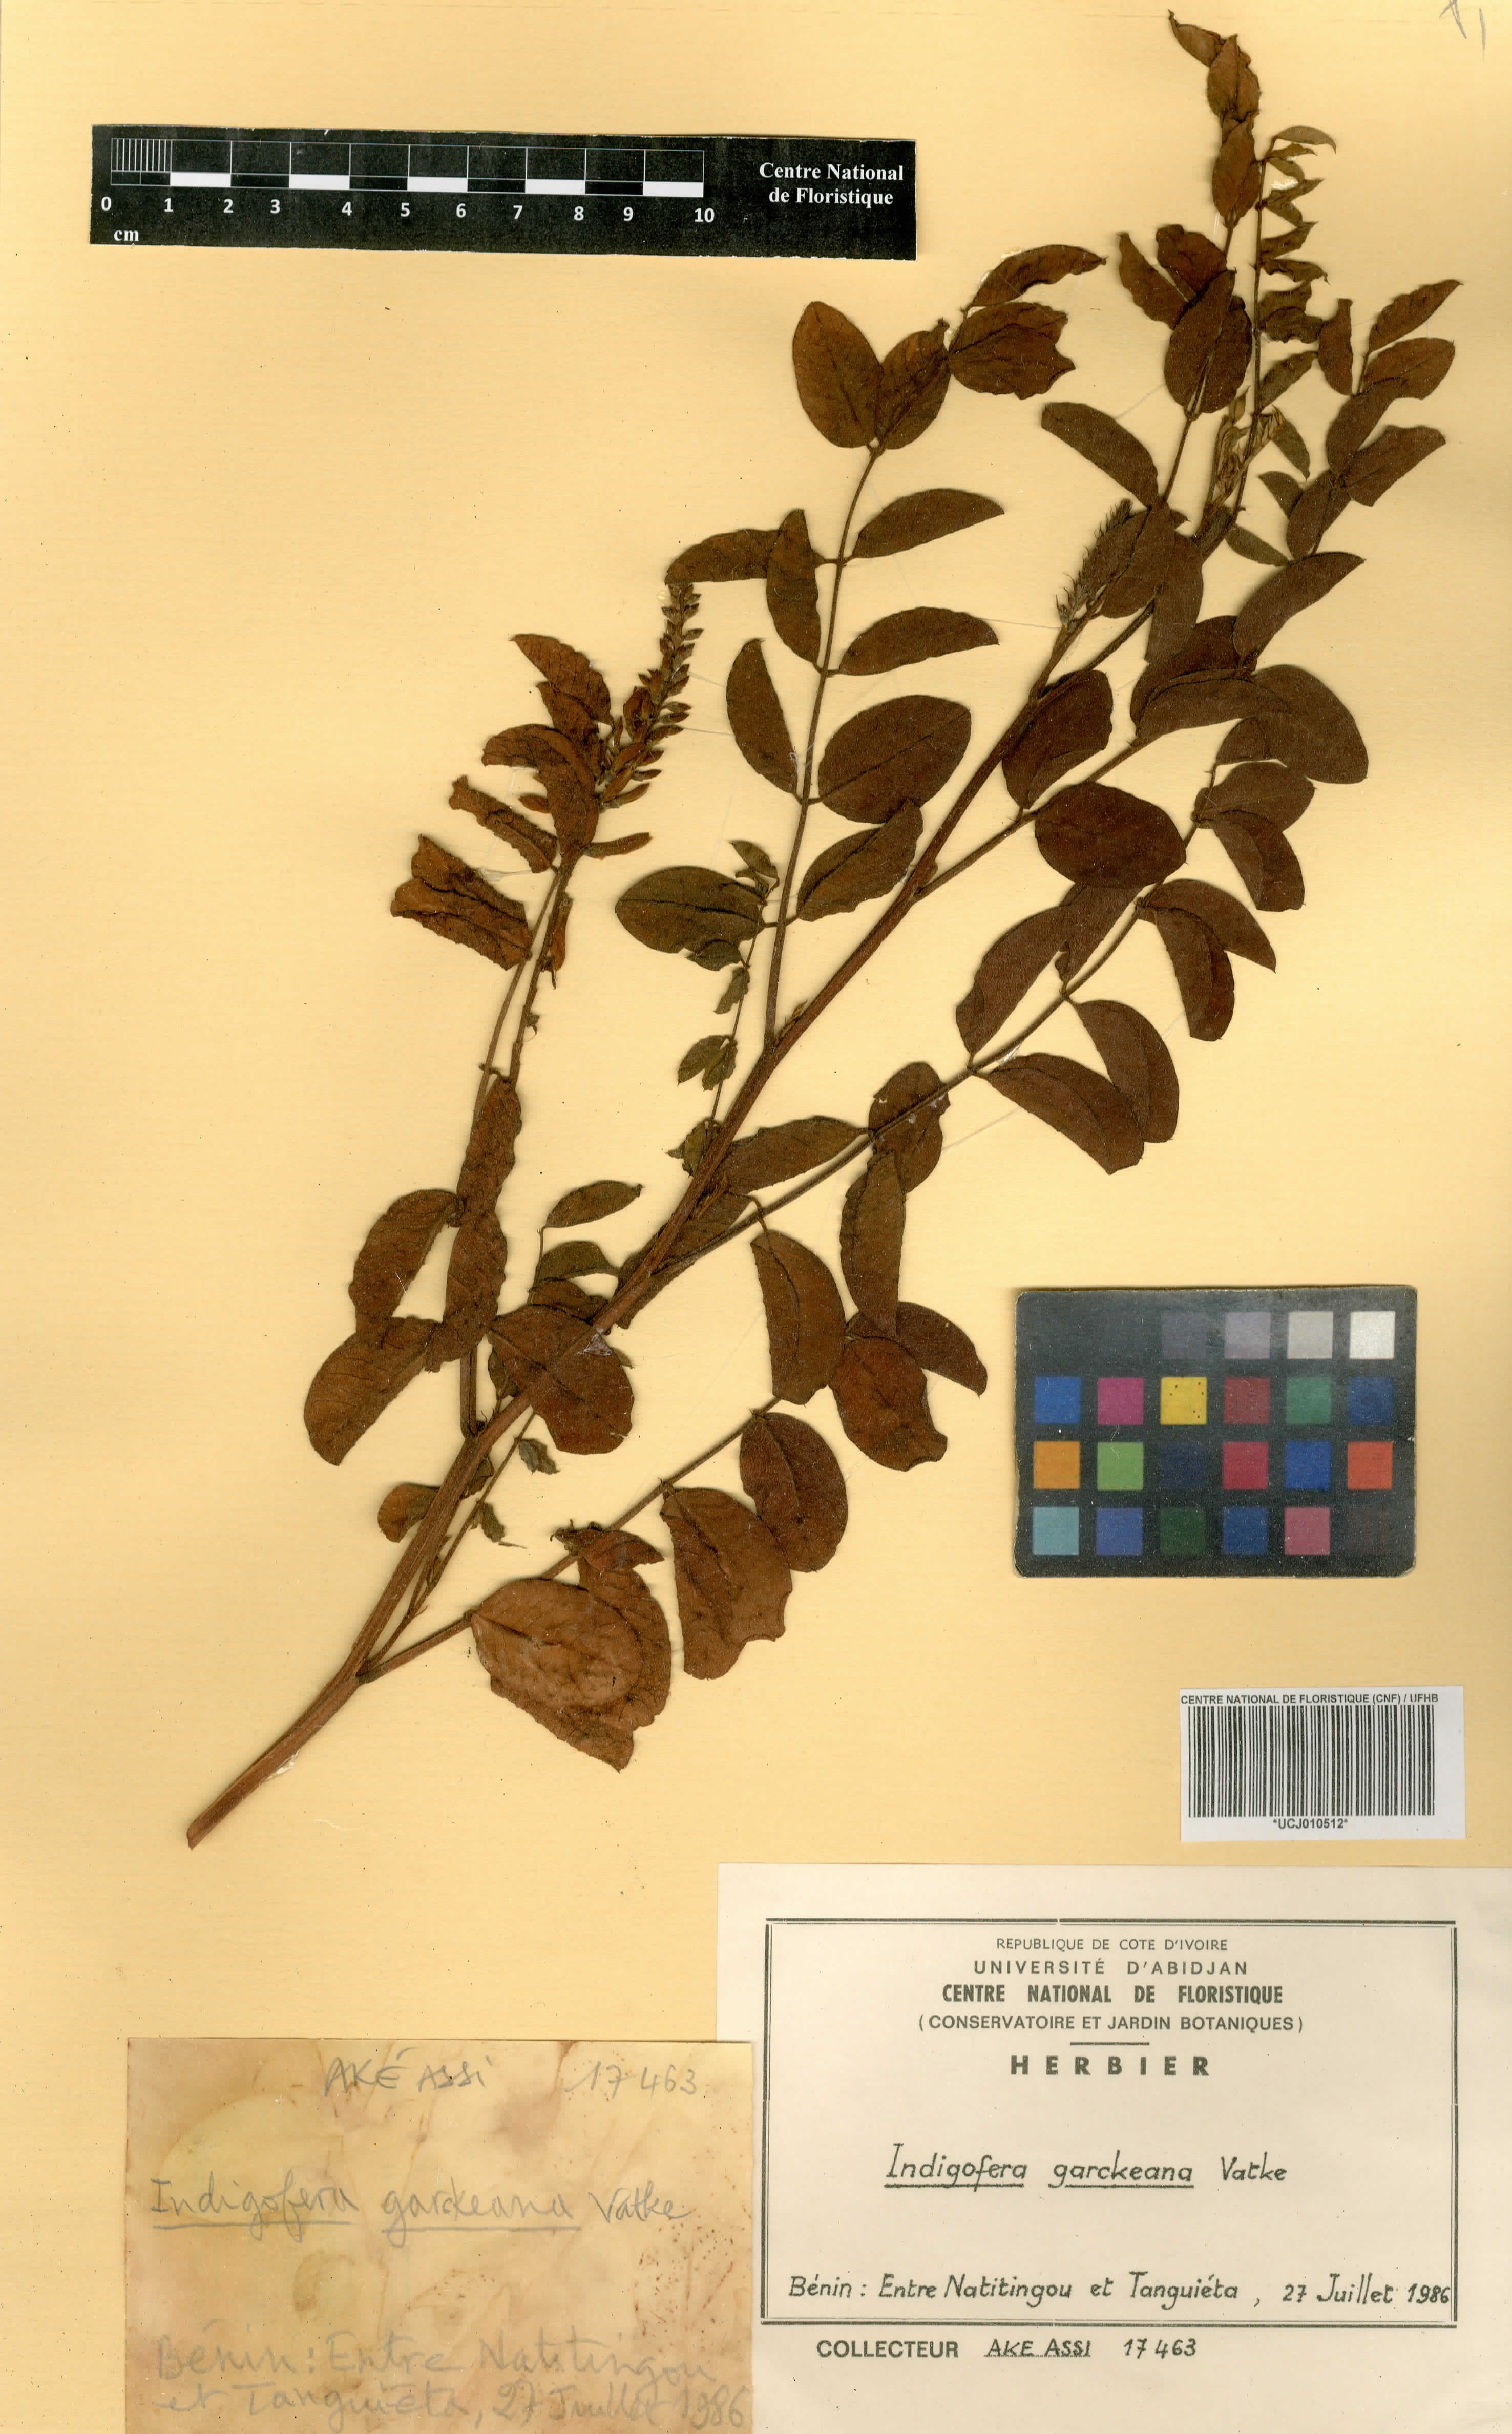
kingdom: Plantae
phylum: Tracheophyta
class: Magnoliopsida
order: Fabales
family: Fabaceae
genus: Indigofera
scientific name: Indigofera garckeana
